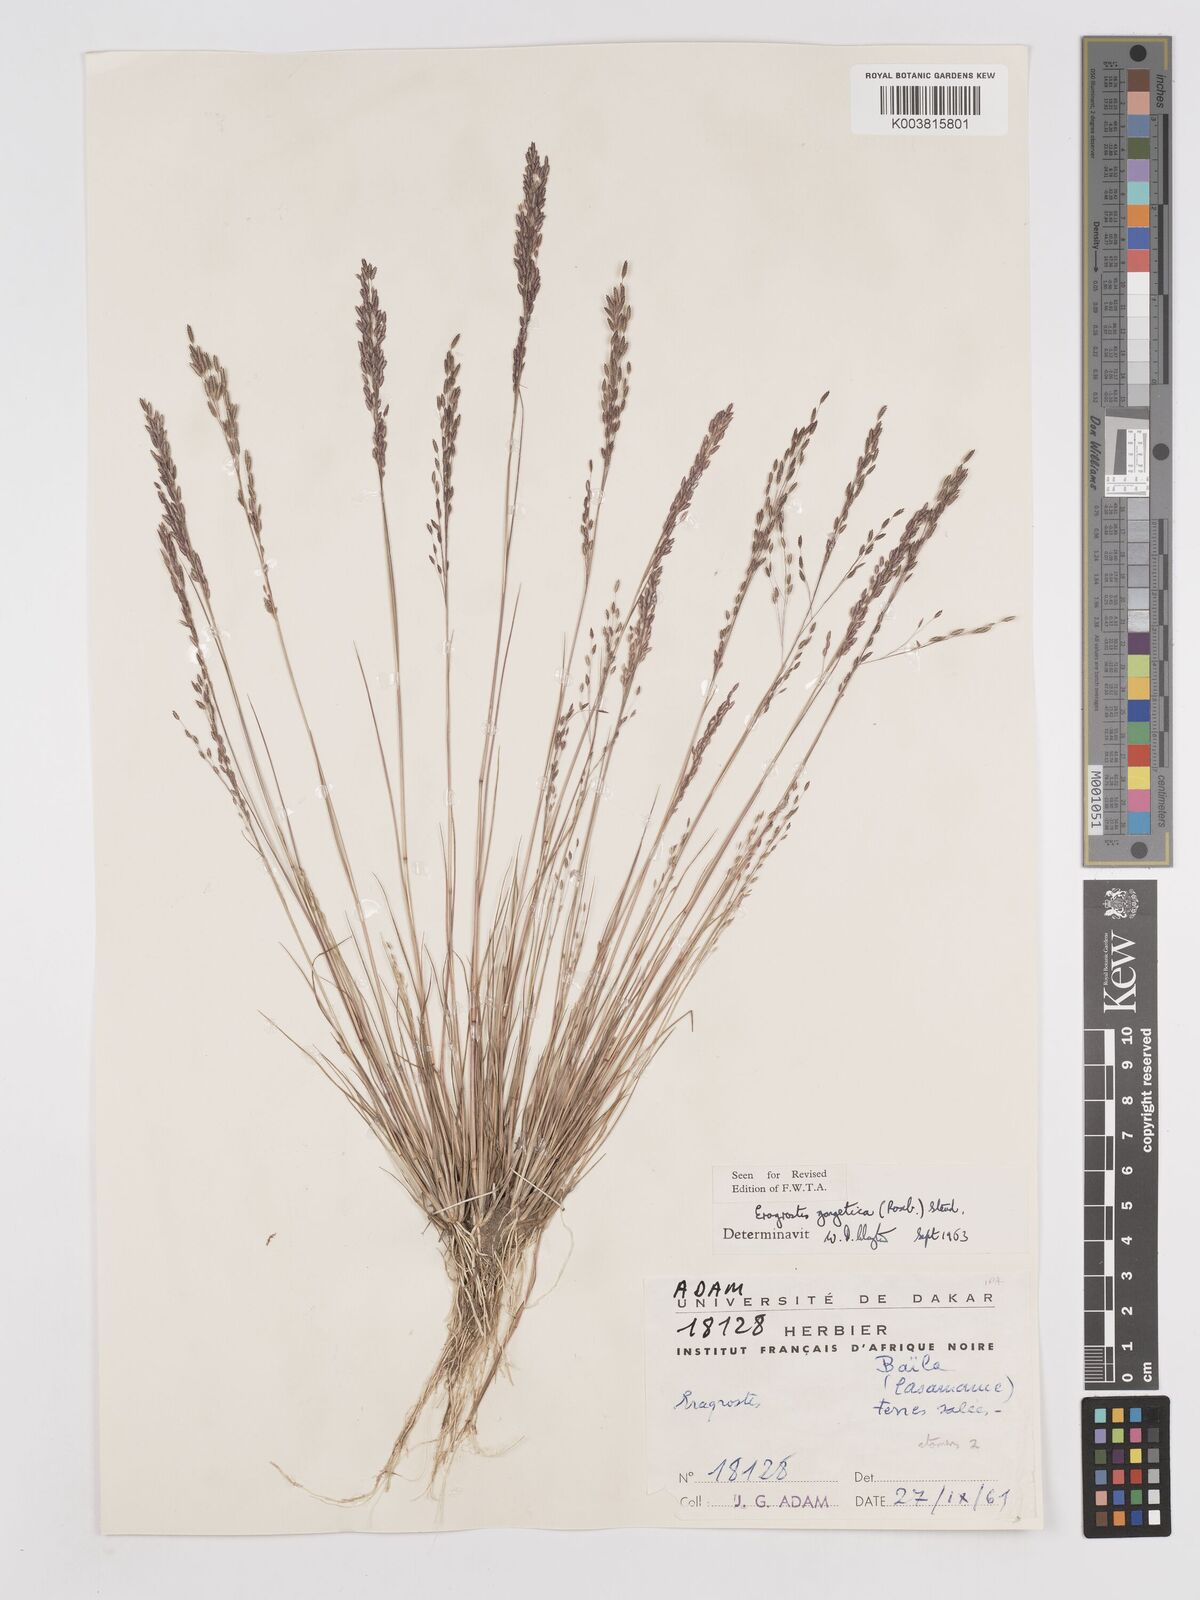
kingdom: Plantae
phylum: Tracheophyta
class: Liliopsida
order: Poales
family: Poaceae
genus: Eragrostis
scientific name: Eragrostis gangetica
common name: Slimflower lovegrass
